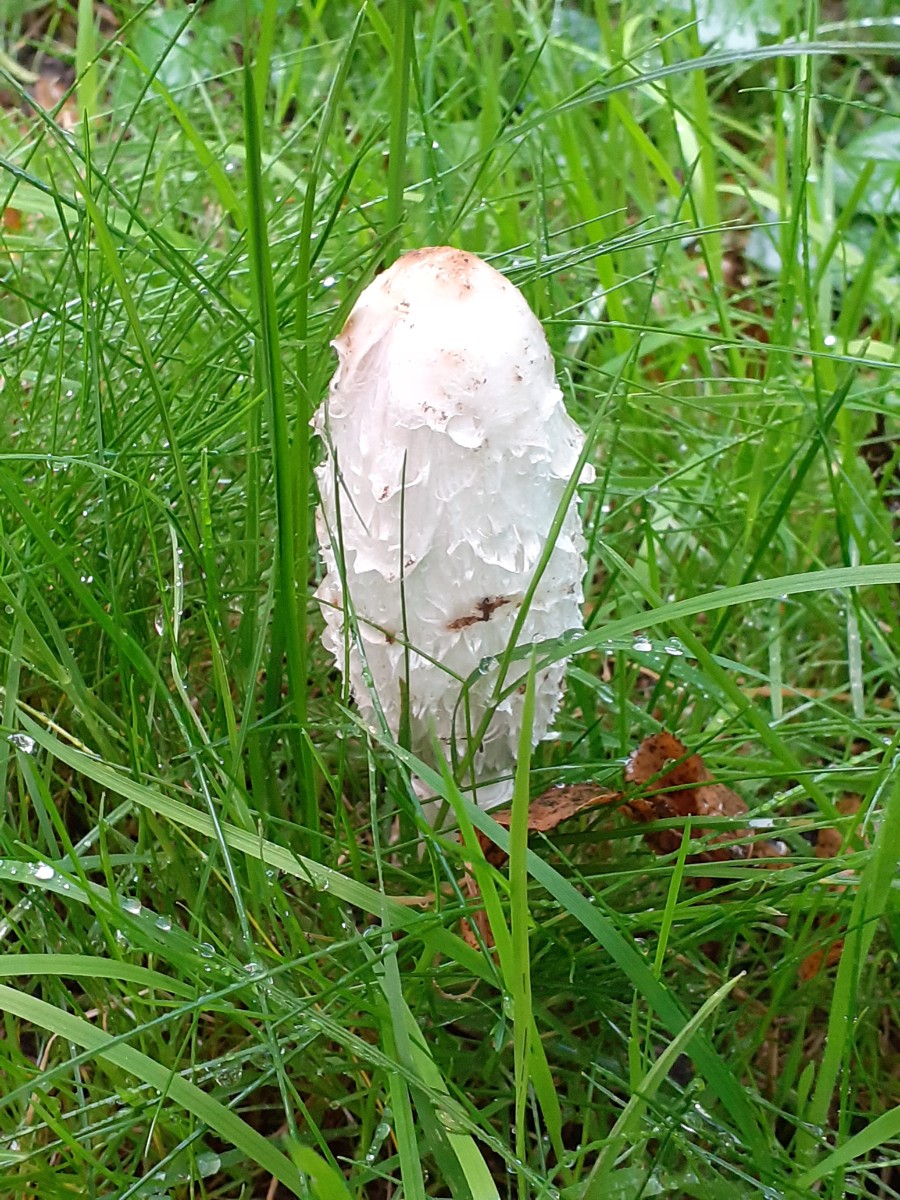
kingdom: Fungi
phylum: Basidiomycota
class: Agaricomycetes
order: Agaricales
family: Agaricaceae
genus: Coprinus
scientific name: Coprinus comatus
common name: stor parykhat
